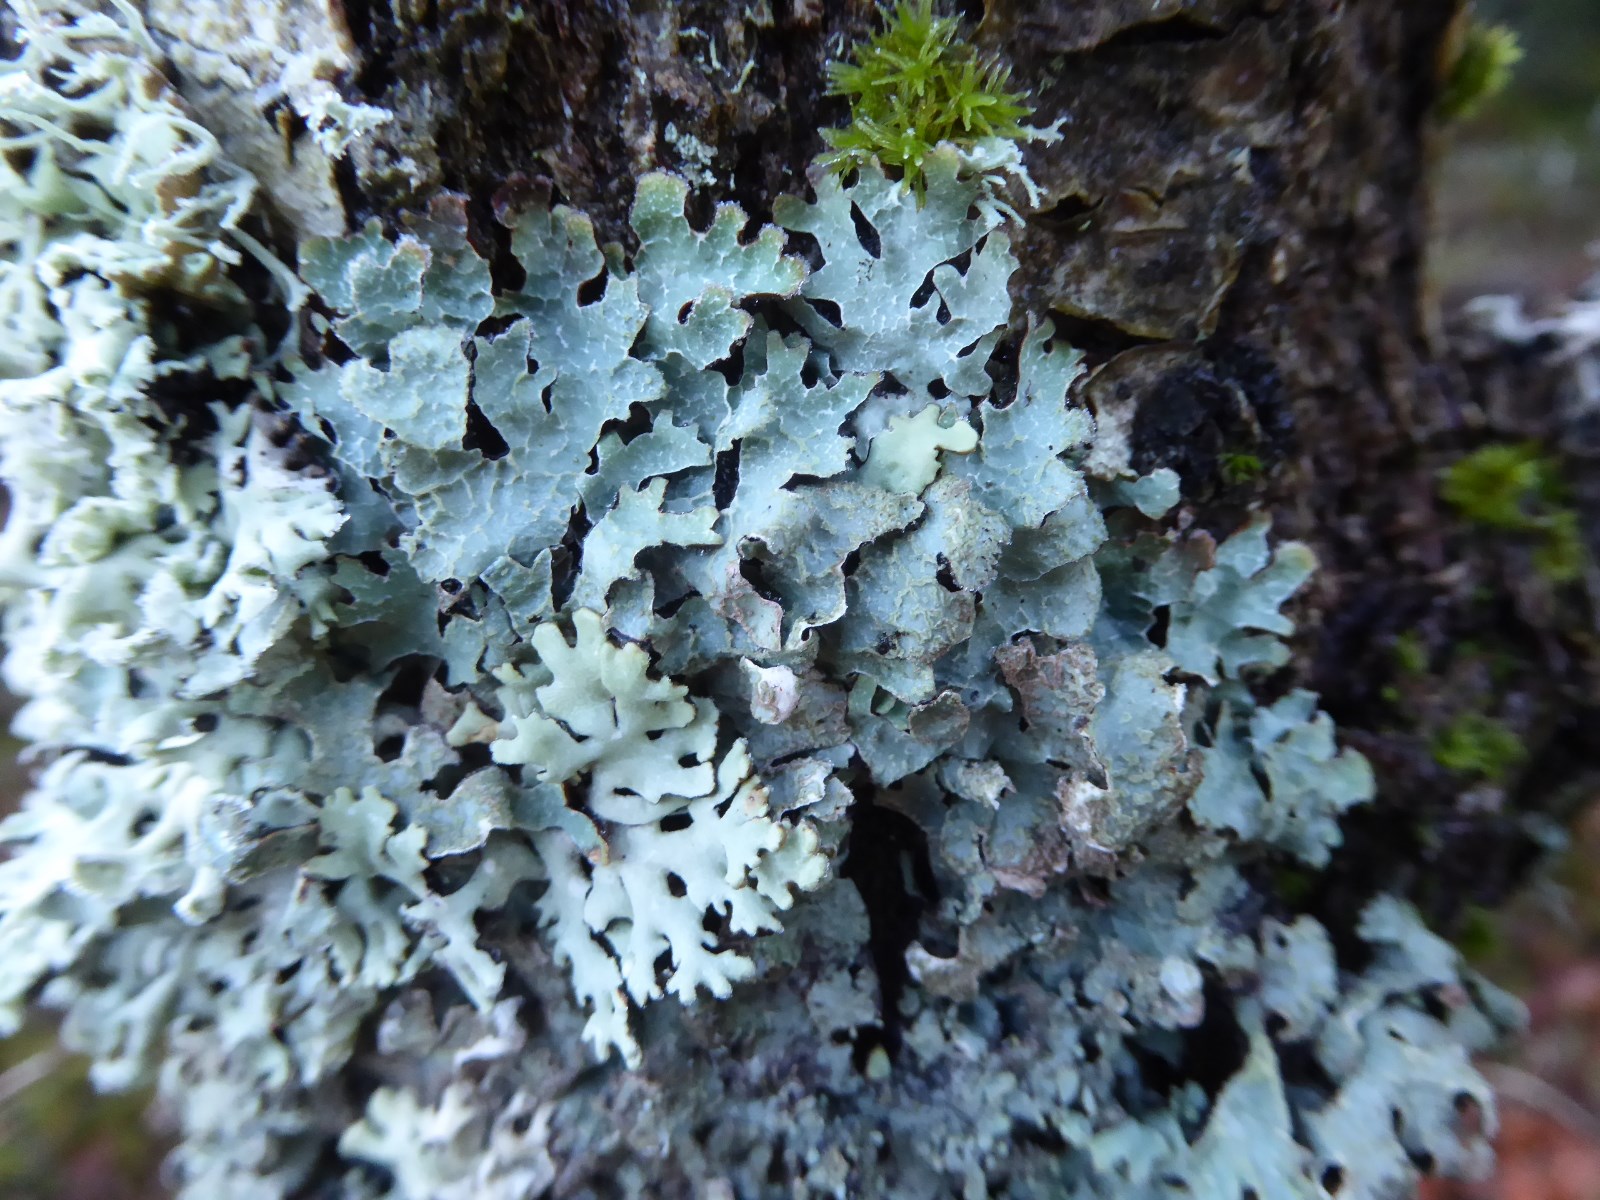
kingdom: Fungi
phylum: Ascomycota
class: Lecanoromycetes
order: Lecanorales
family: Parmeliaceae
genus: Hypogymnia
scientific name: Hypogymnia physodes
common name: almindelig kvistlav
